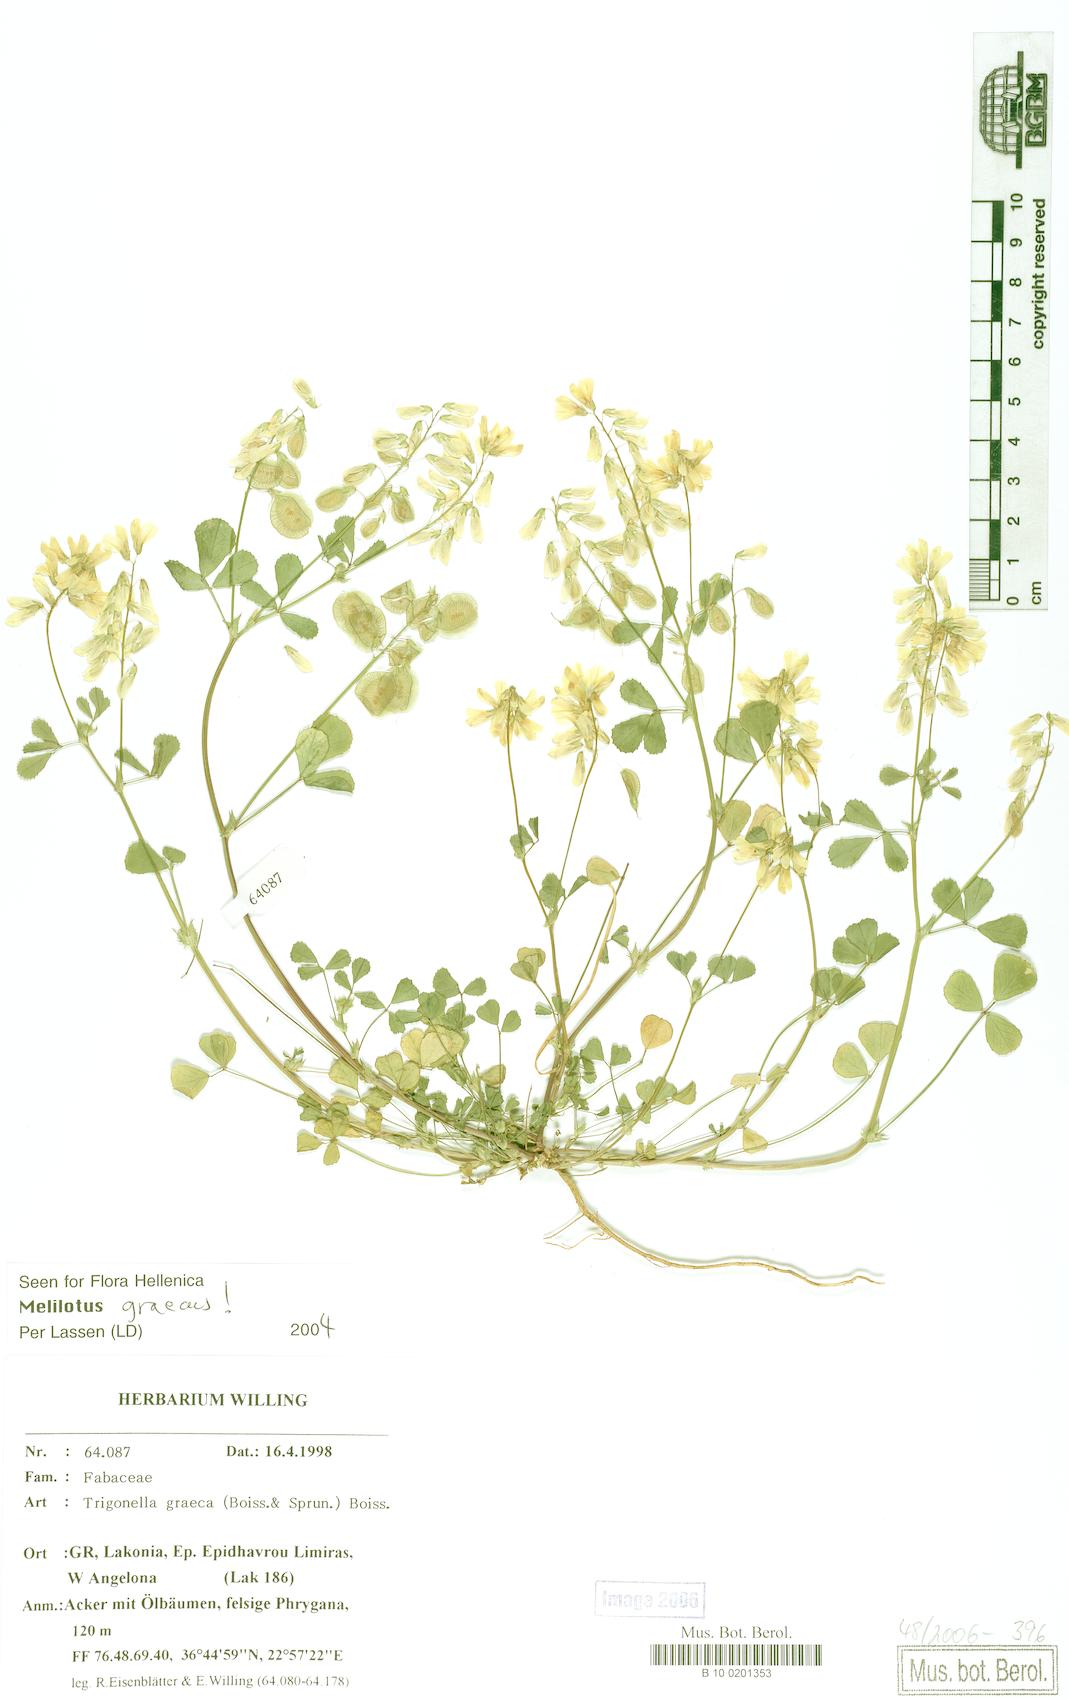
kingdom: Plantae
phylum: Tracheophyta
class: Magnoliopsida
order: Fabales
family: Fabaceae
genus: Trigonella
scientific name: Trigonella graeca
